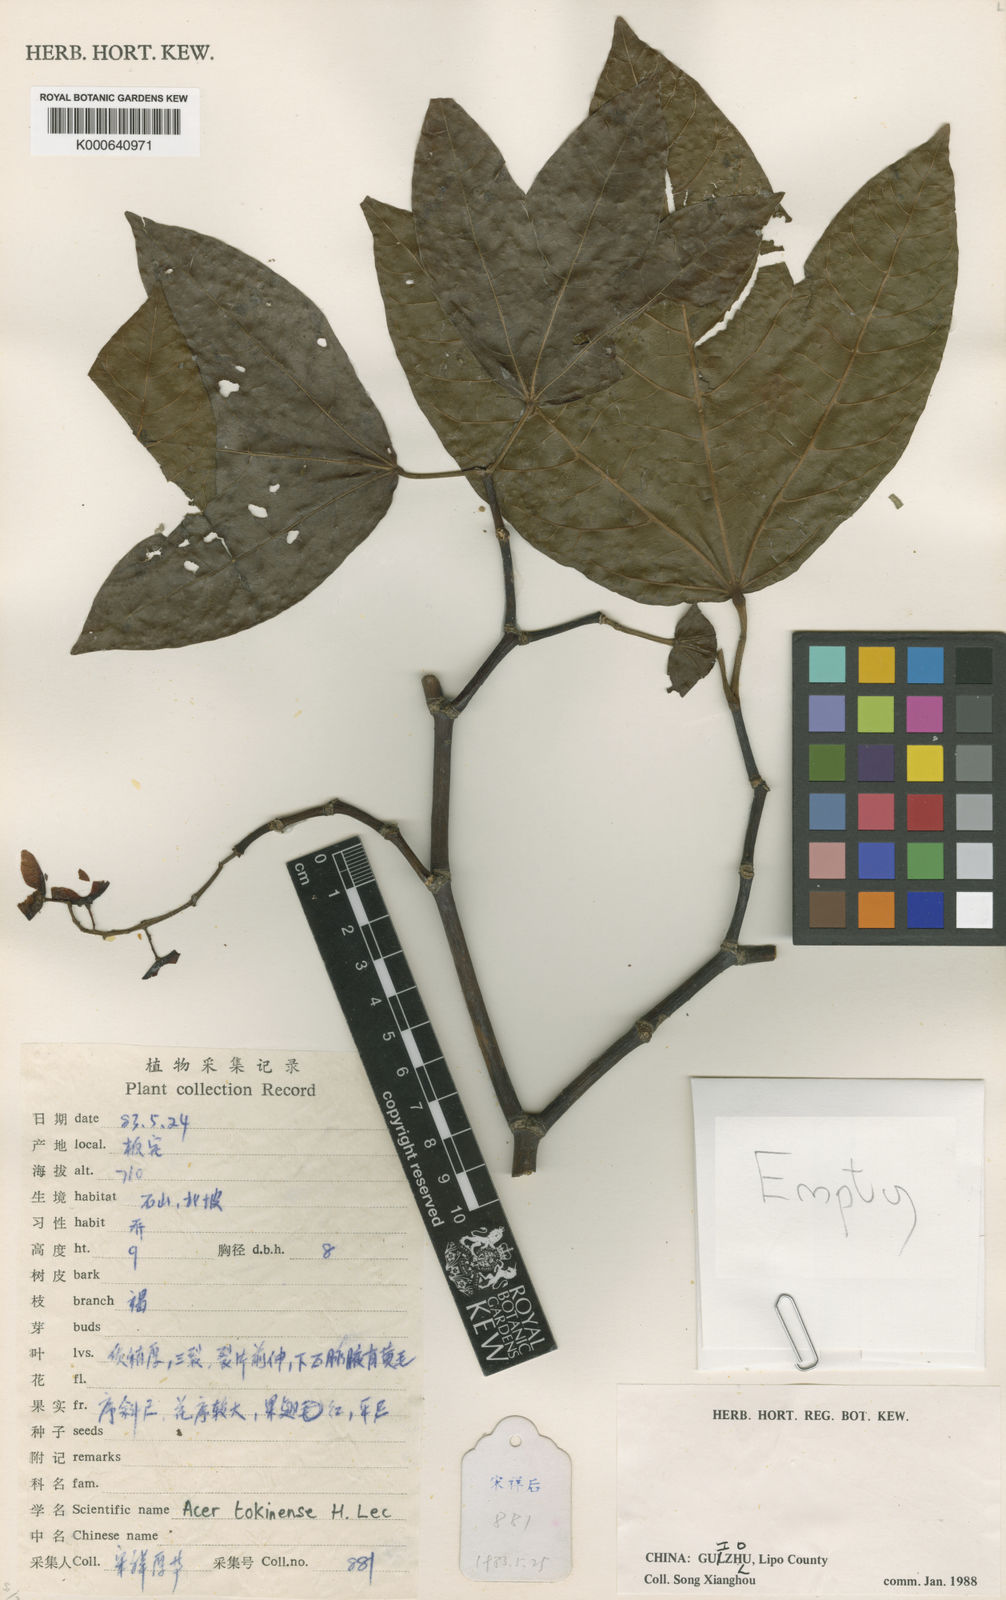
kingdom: Plantae
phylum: Tracheophyta
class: Magnoliopsida
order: Sapindales
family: Sapindaceae
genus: Acer
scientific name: Acer tonkinense
